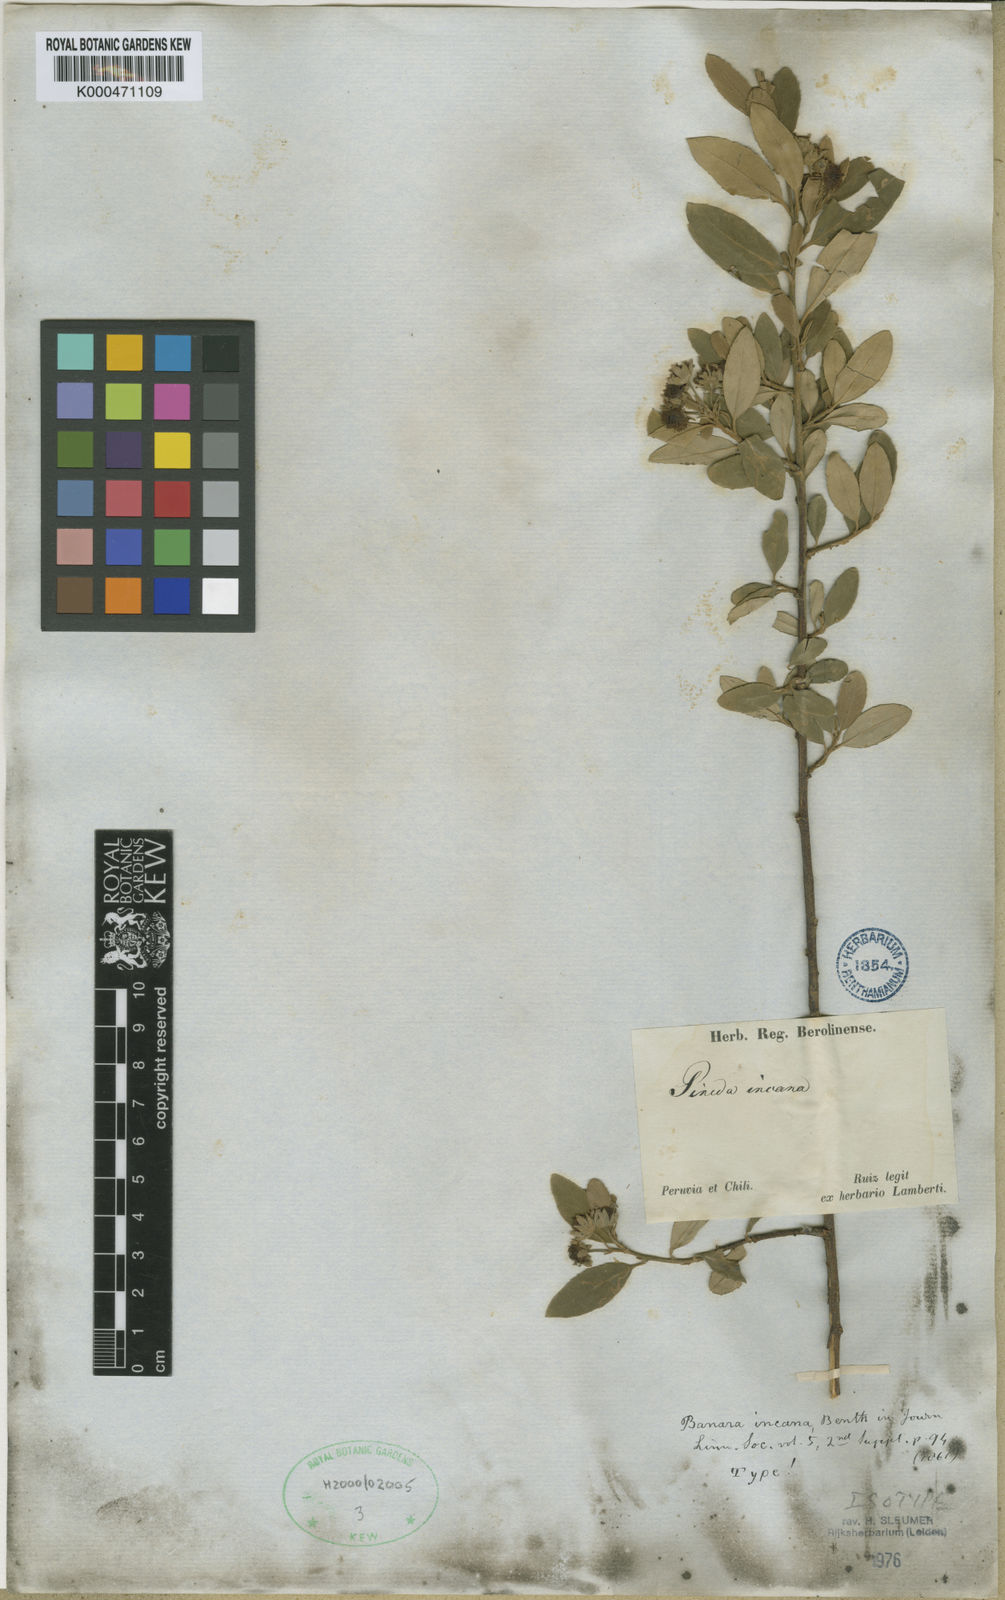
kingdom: Plantae
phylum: Tracheophyta
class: Magnoliopsida
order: Malpighiales
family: Salicaceae
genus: Pineda
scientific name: Pineda incana
